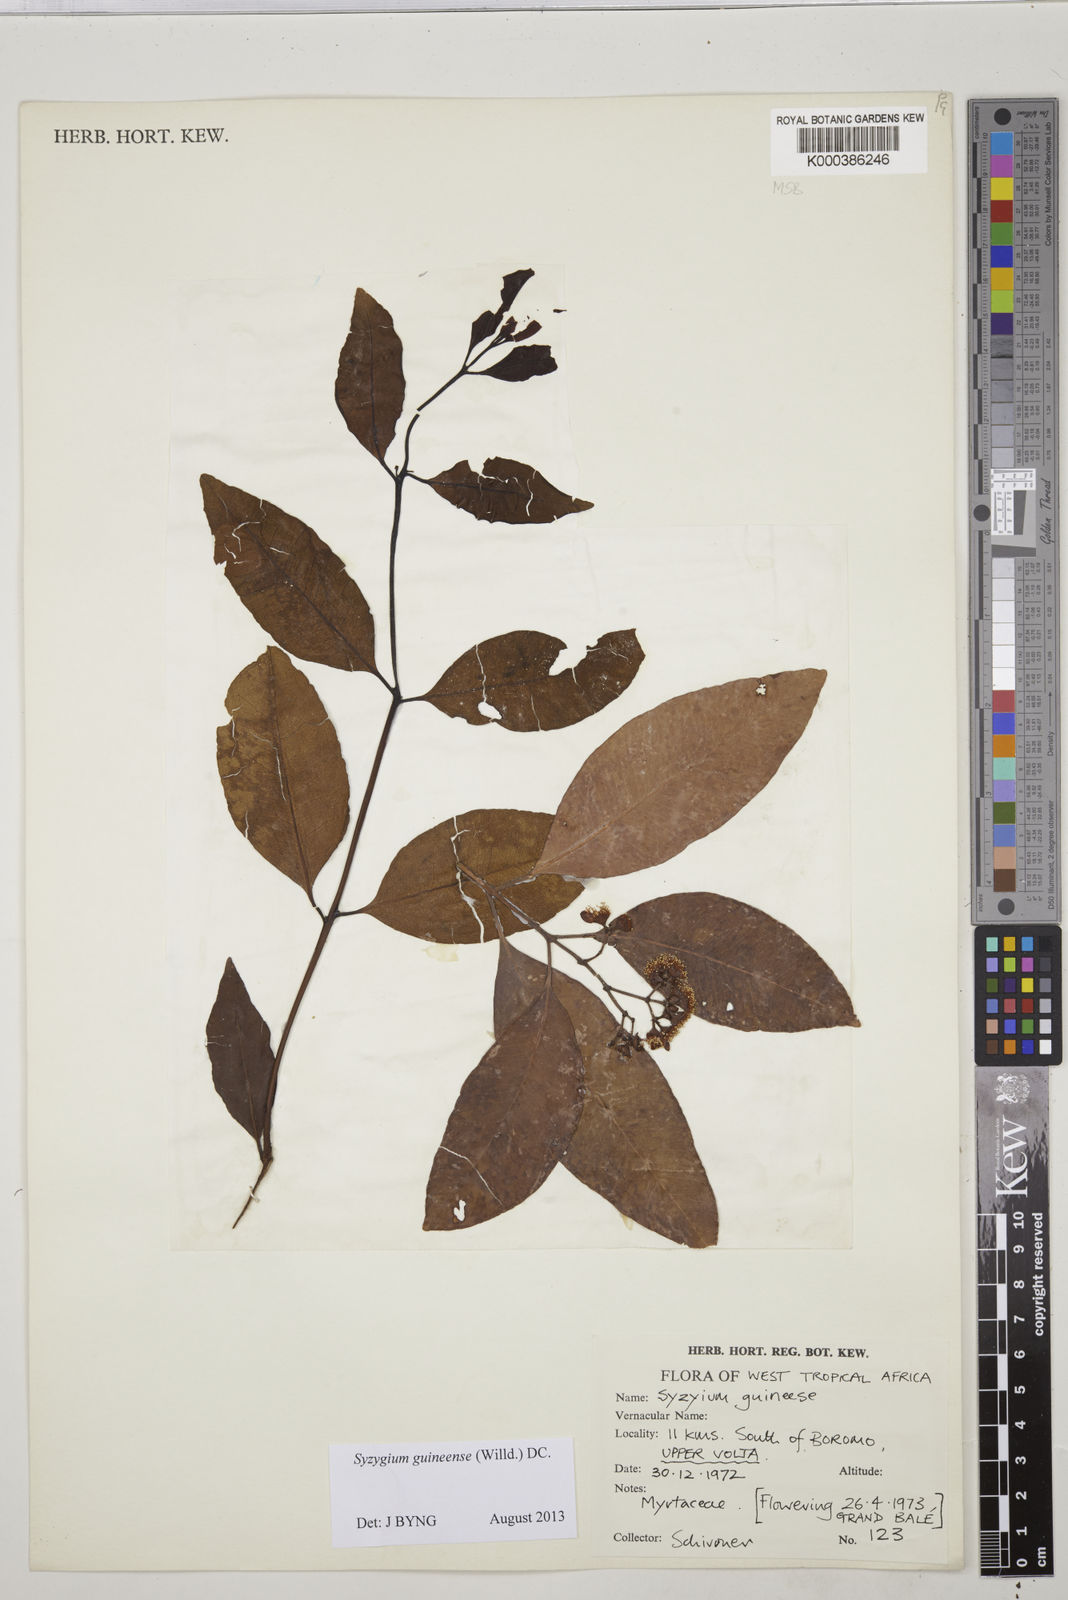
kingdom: Plantae
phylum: Tracheophyta
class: Magnoliopsida
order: Myrtales
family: Myrtaceae
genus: Syzygium
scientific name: Syzygium guineense
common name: Water-pear
